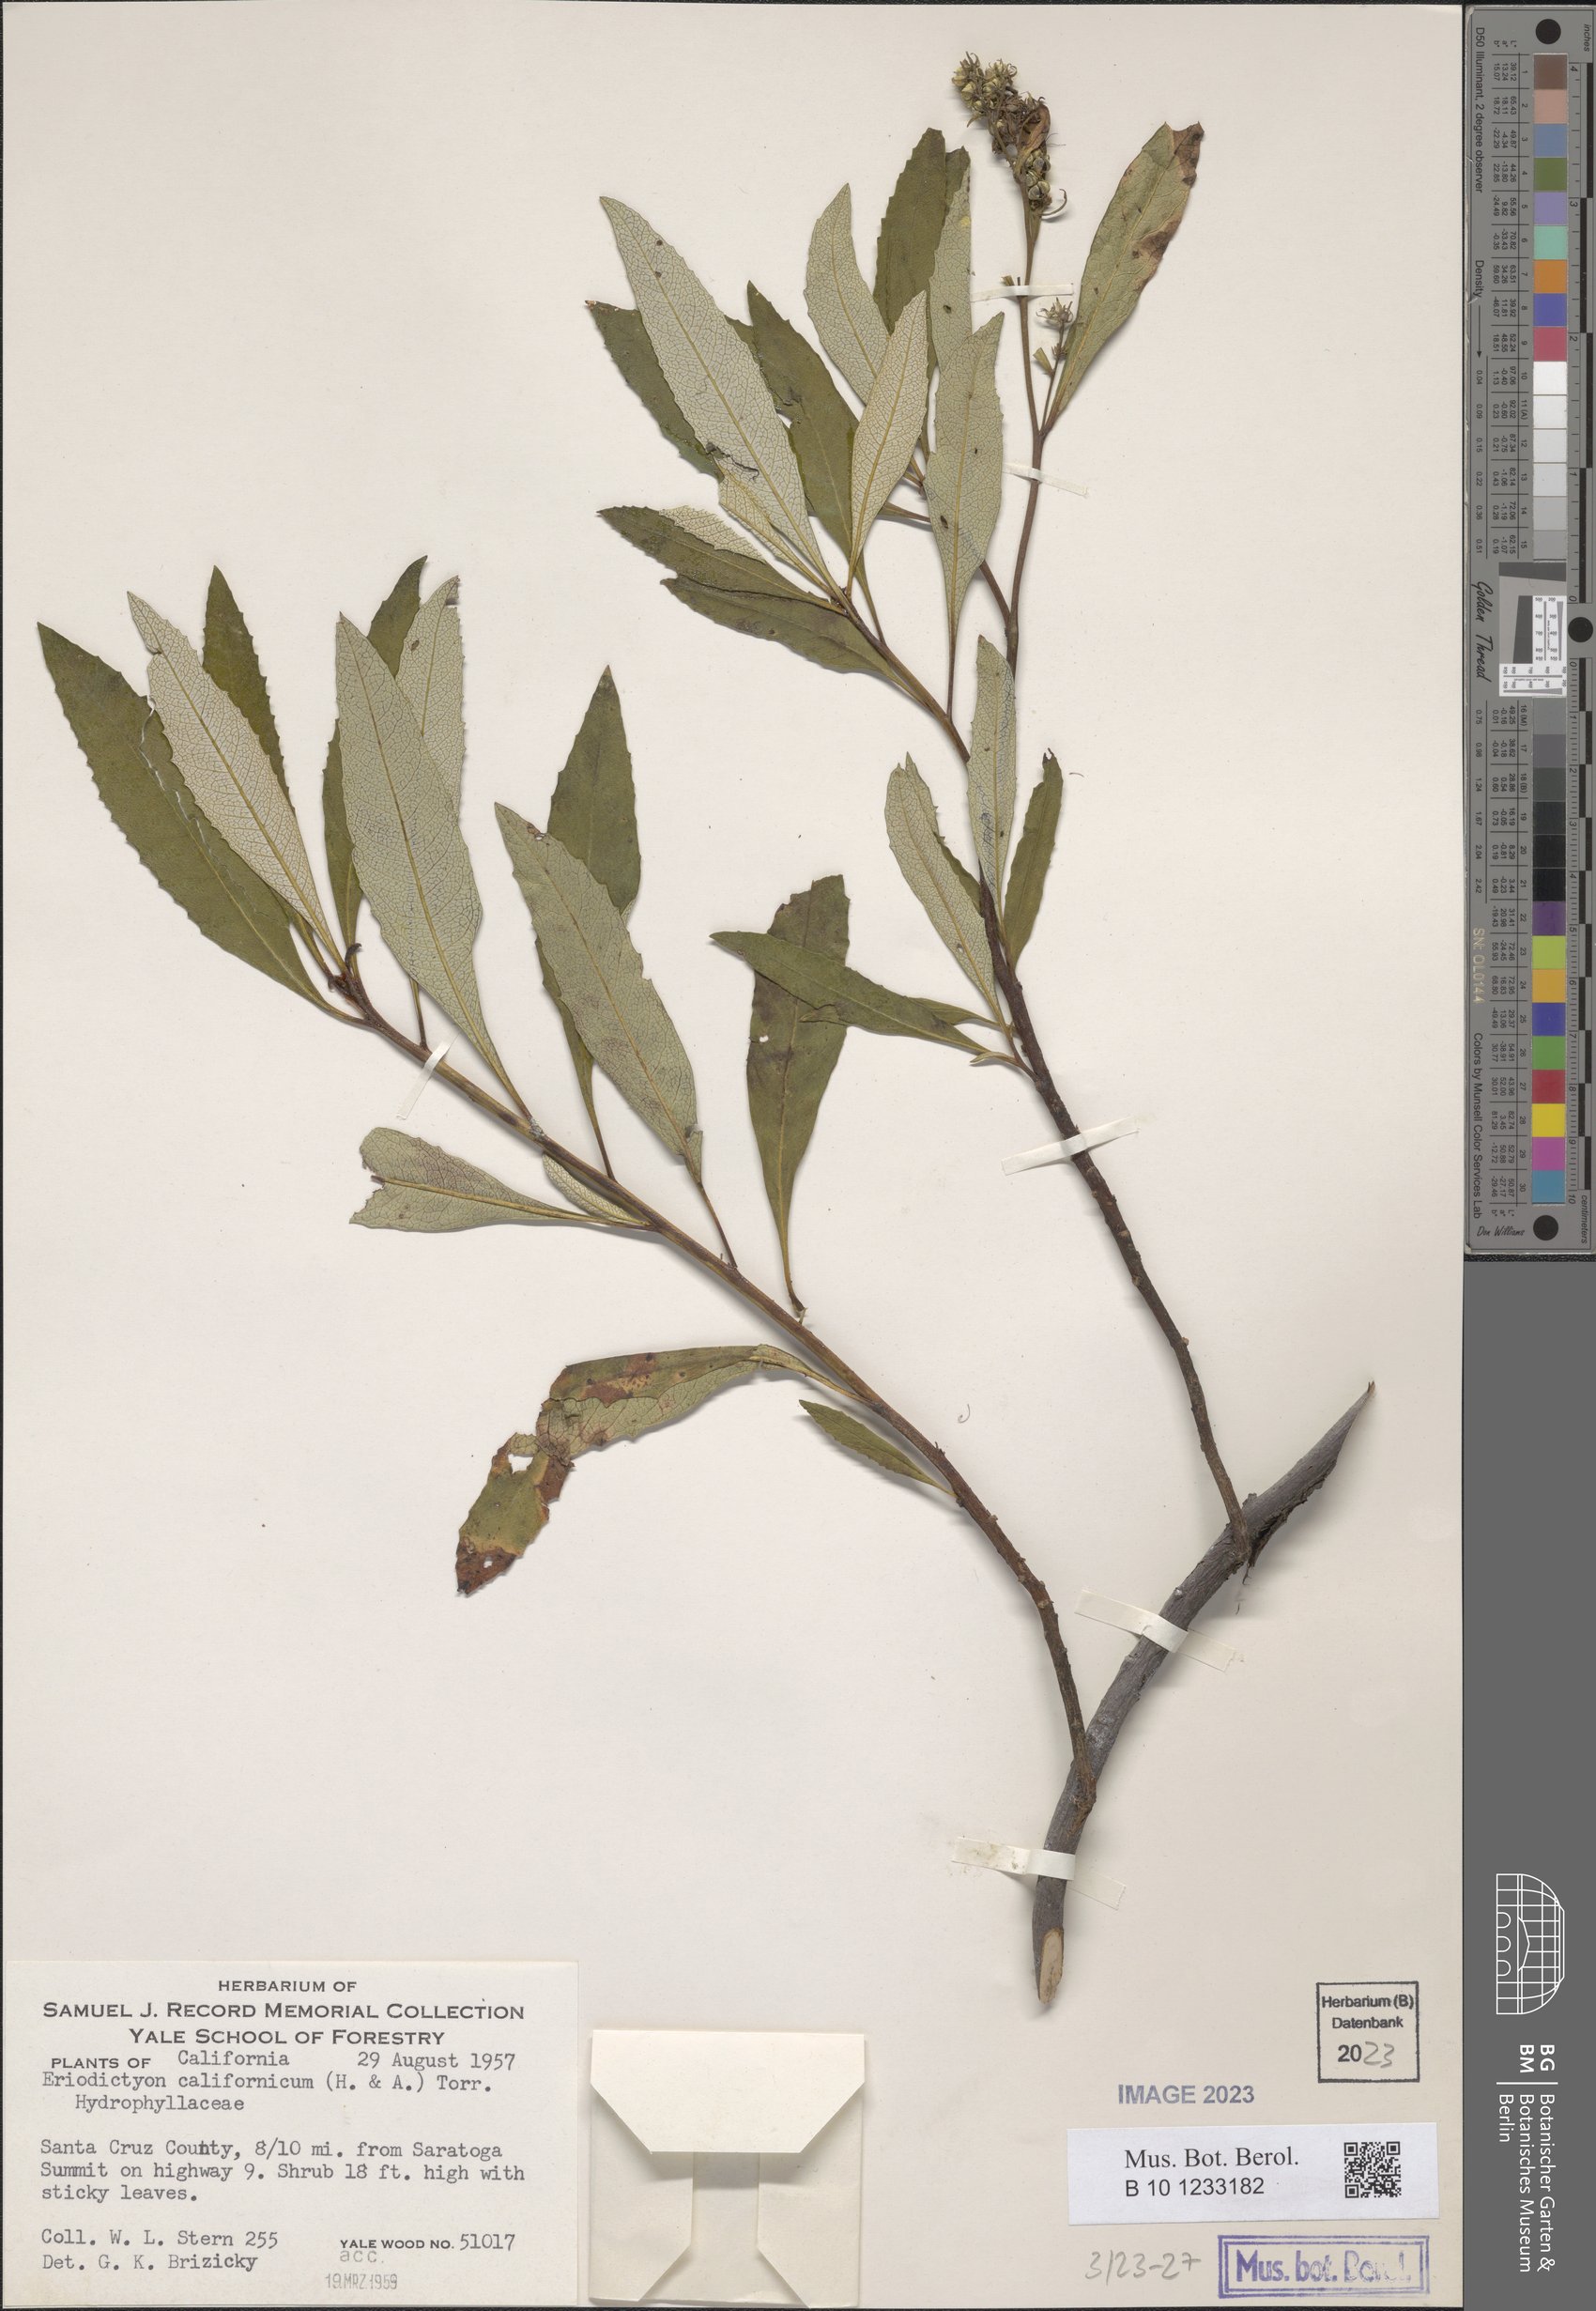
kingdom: Plantae
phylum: Tracheophyta
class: Magnoliopsida
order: Boraginales
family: Namaceae
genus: Eriodictyon
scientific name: Eriodictyon crassifolium
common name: Thick-leaf yerba-santa
